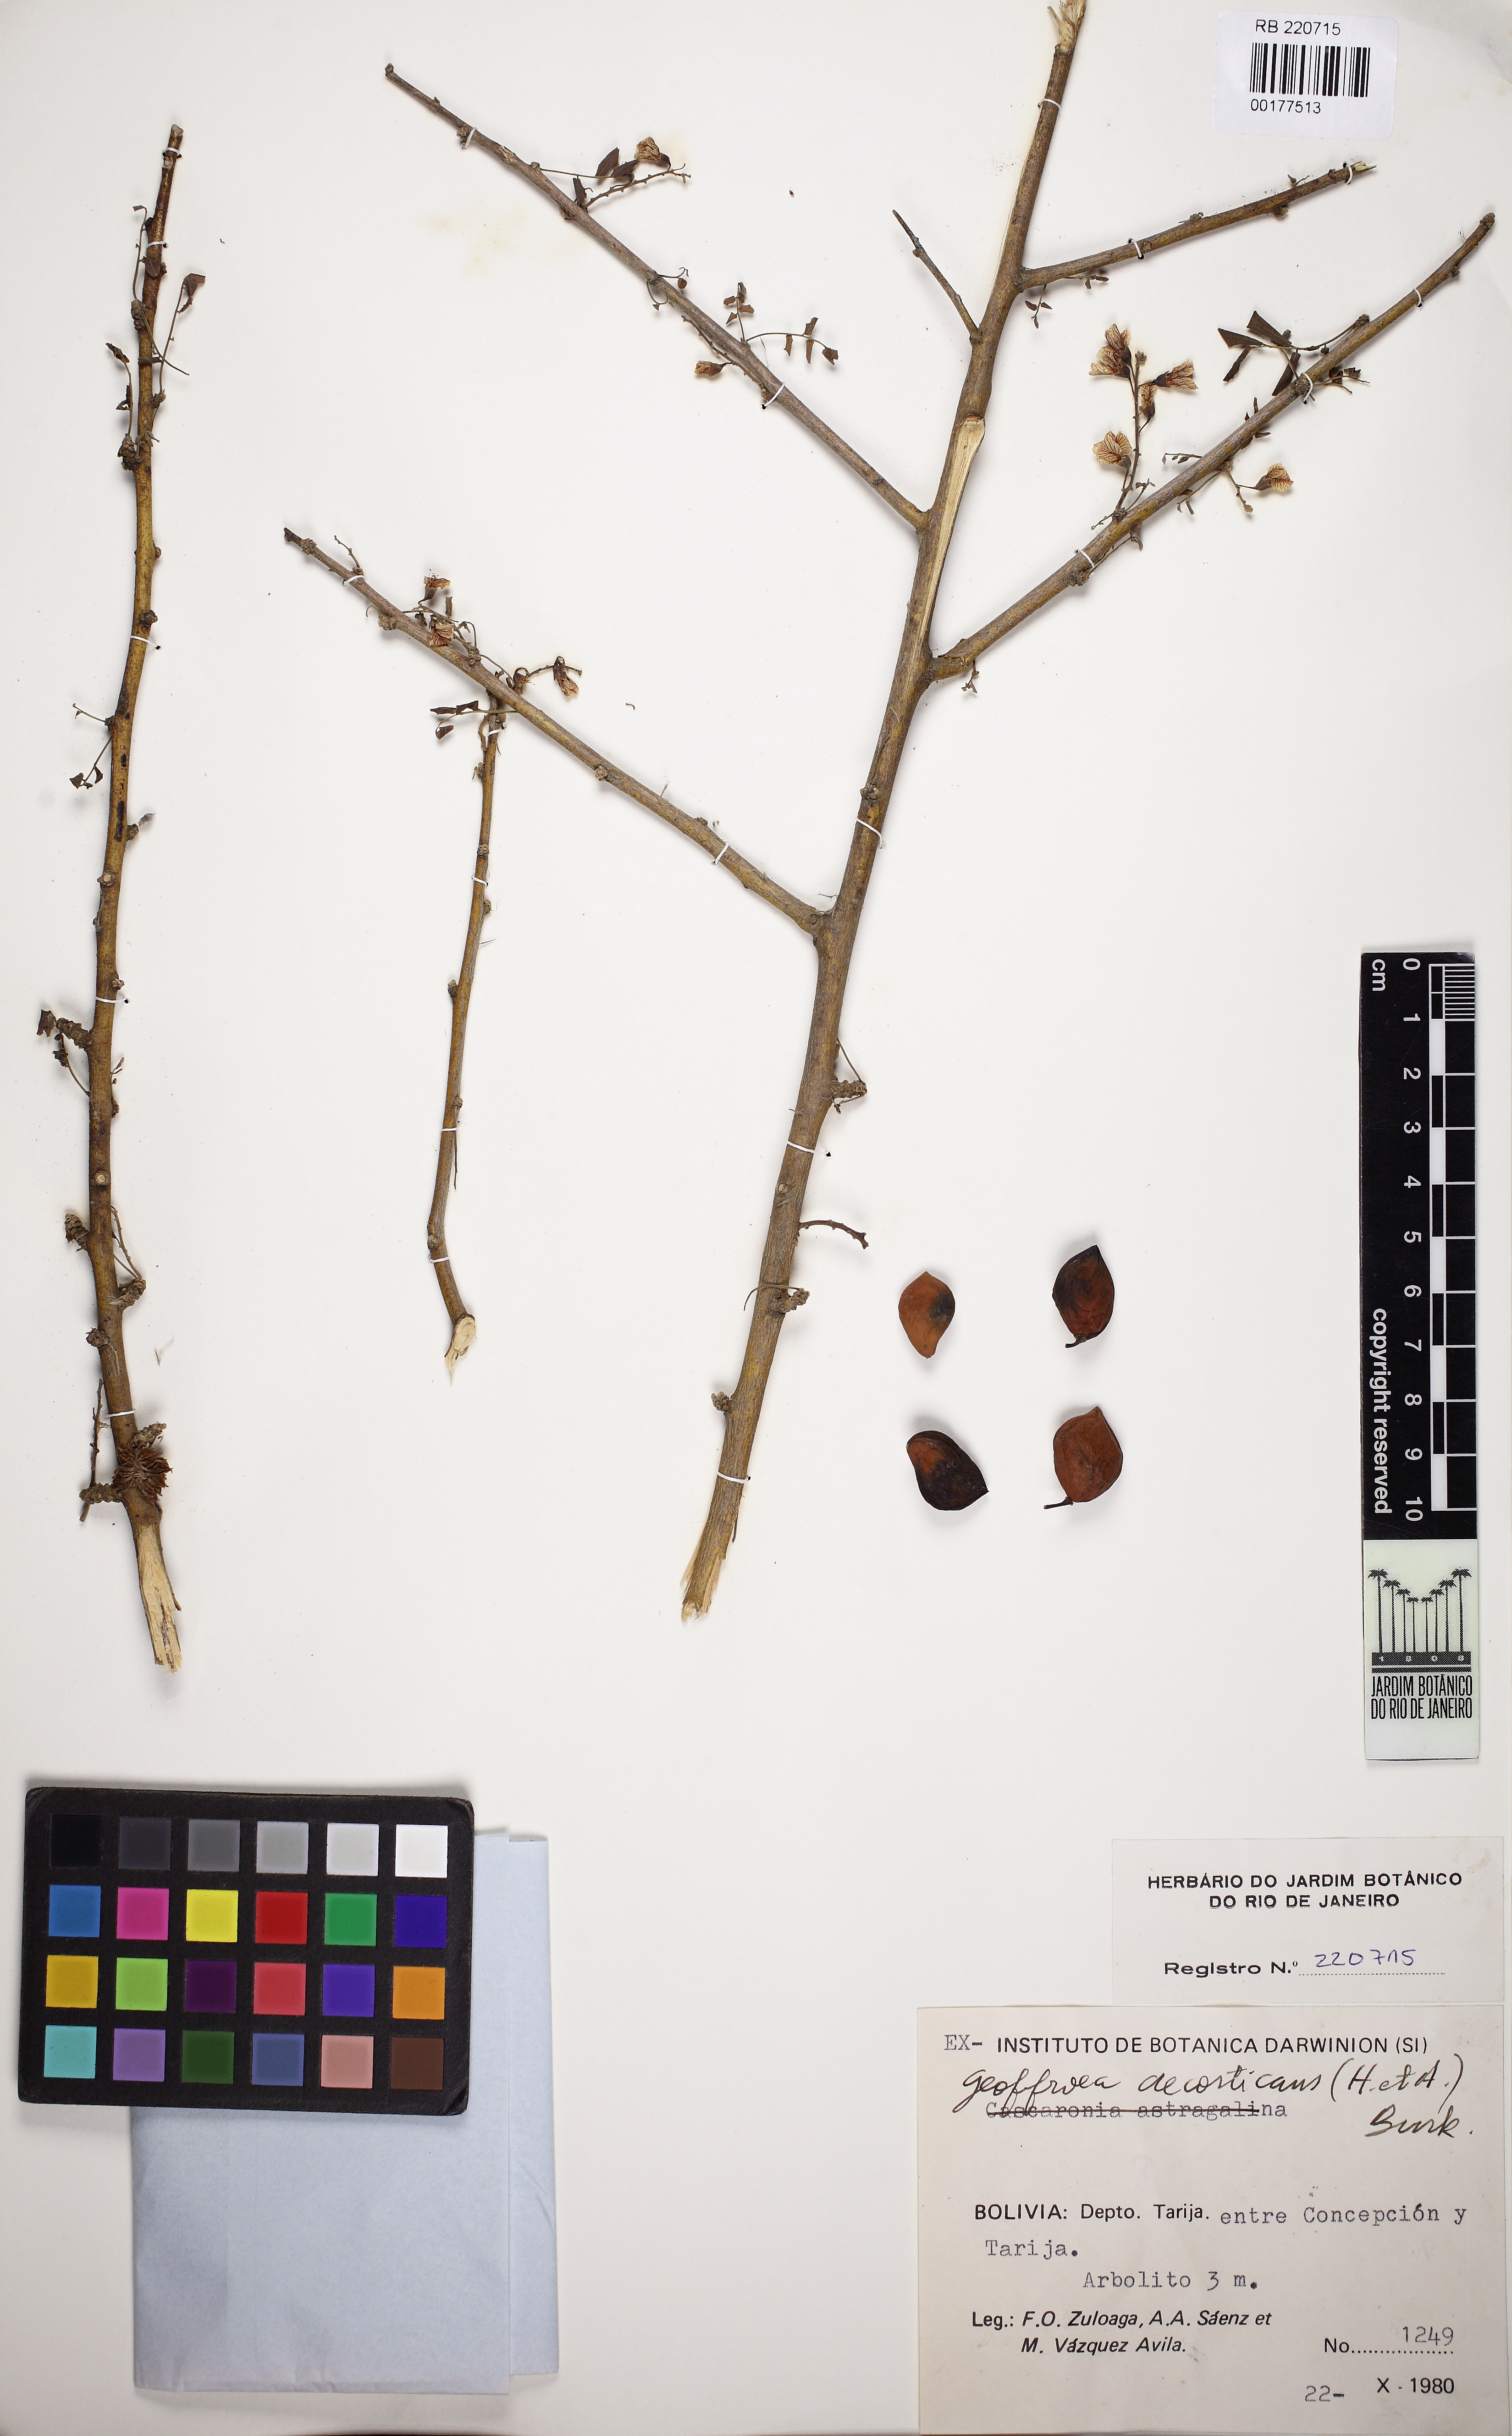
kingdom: Plantae
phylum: Tracheophyta
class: Magnoliopsida
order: Fabales
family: Fabaceae
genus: Geoffroea
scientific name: Geoffroea decorticans
